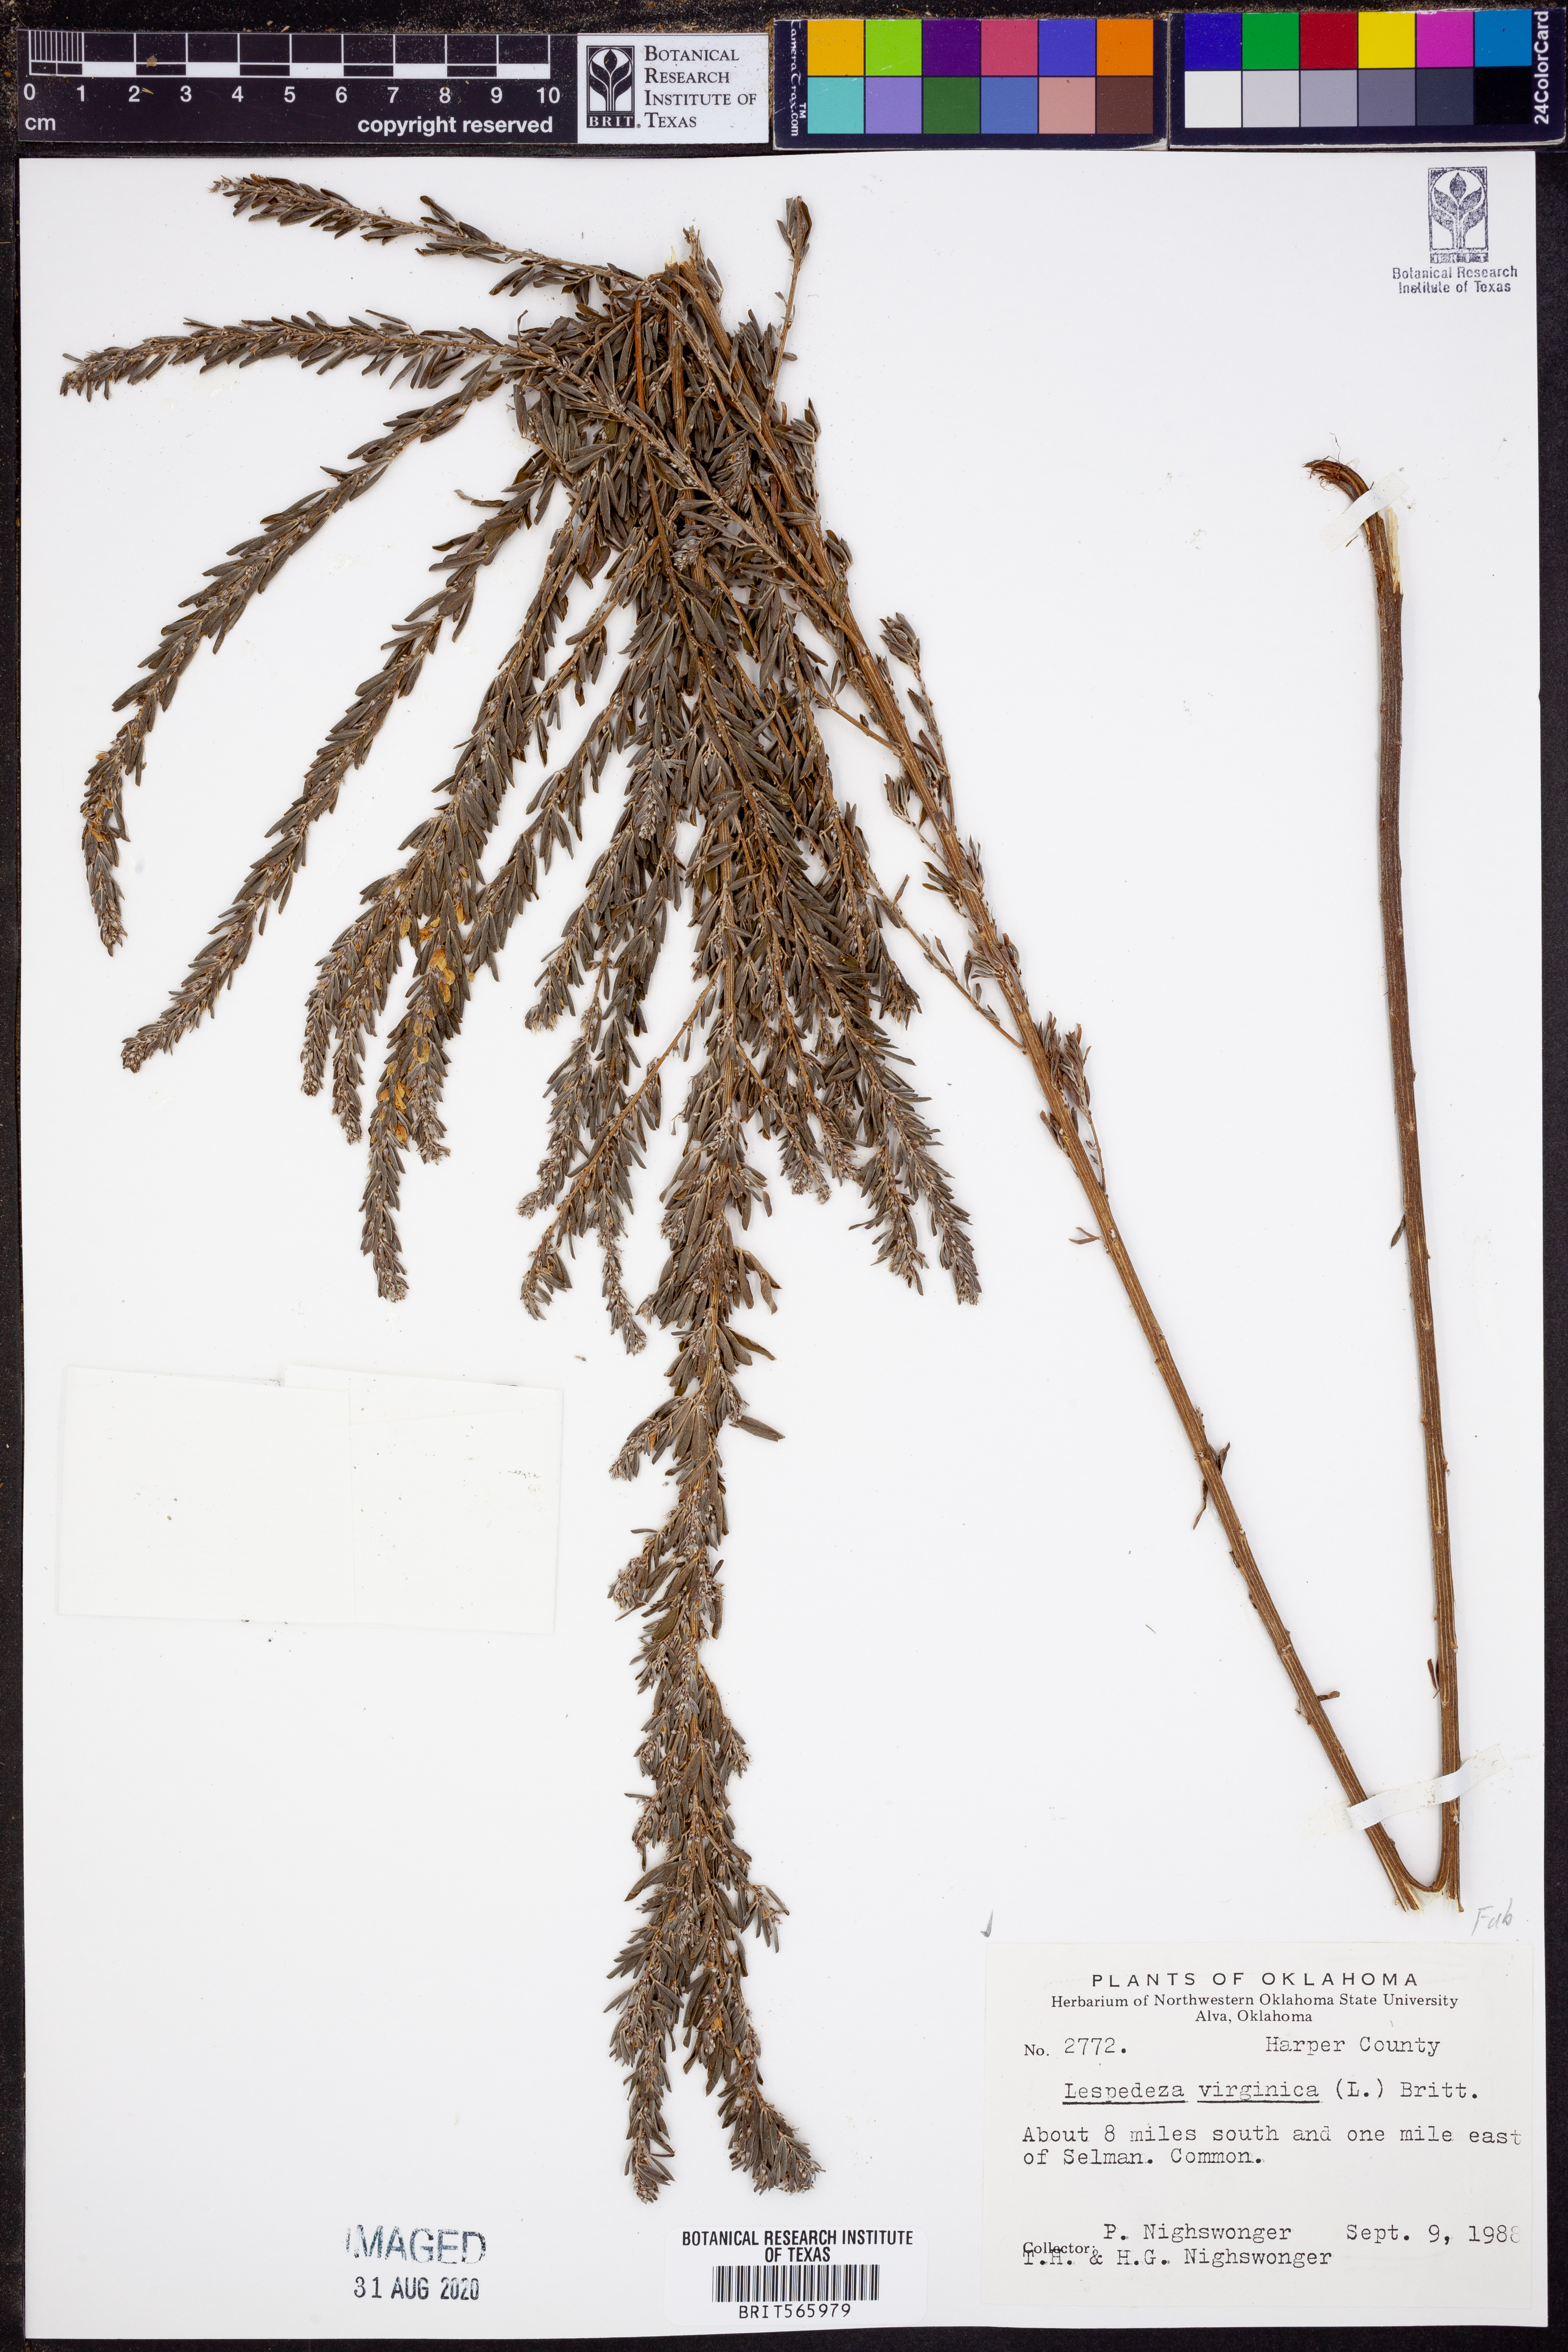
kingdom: Plantae
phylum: Tracheophyta
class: Magnoliopsida
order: Fabales
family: Fabaceae
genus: Lespedeza
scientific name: Lespedeza virginica
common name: Slender bush-clover
